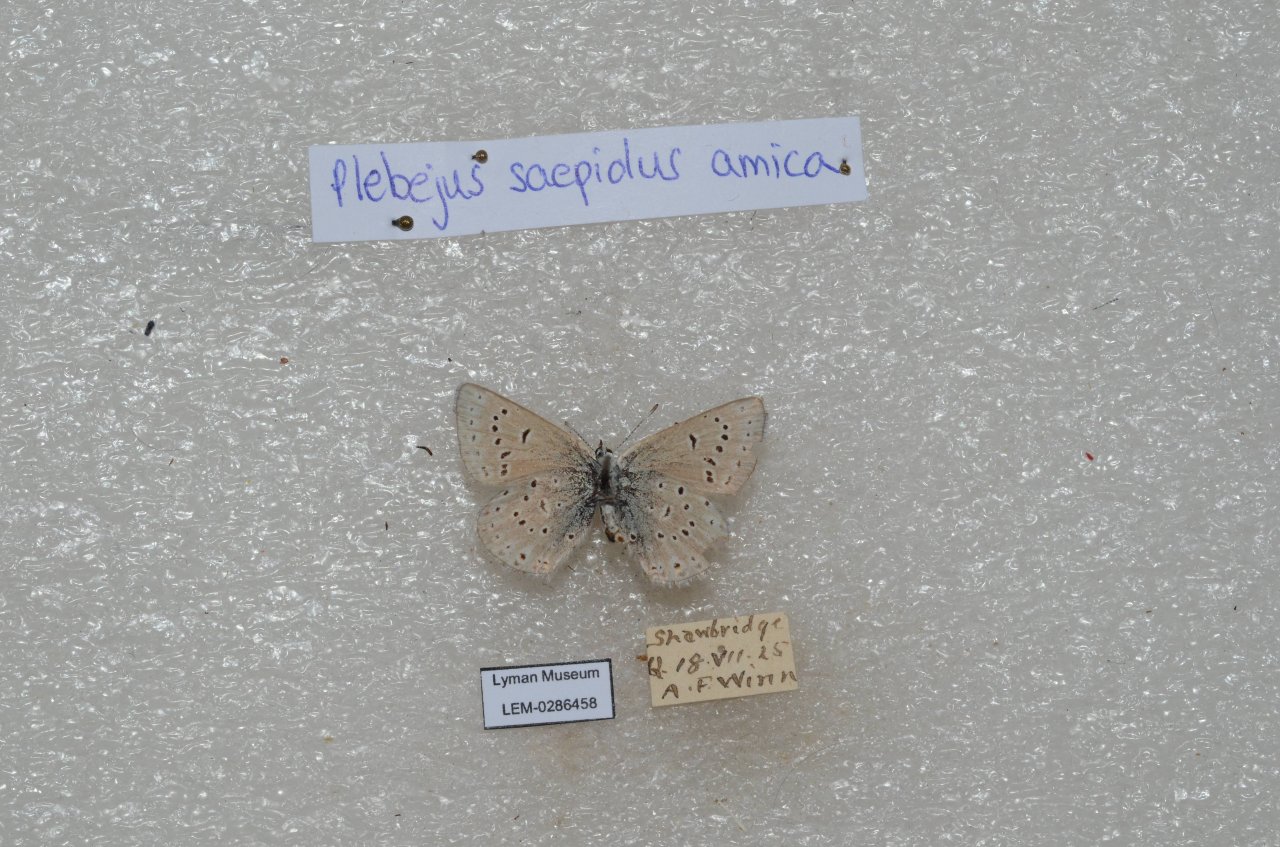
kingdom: Animalia
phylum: Arthropoda
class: Insecta
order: Lepidoptera
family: Lycaenidae
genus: Plebejus
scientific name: Plebejus saepiolus
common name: Greenish Blue
